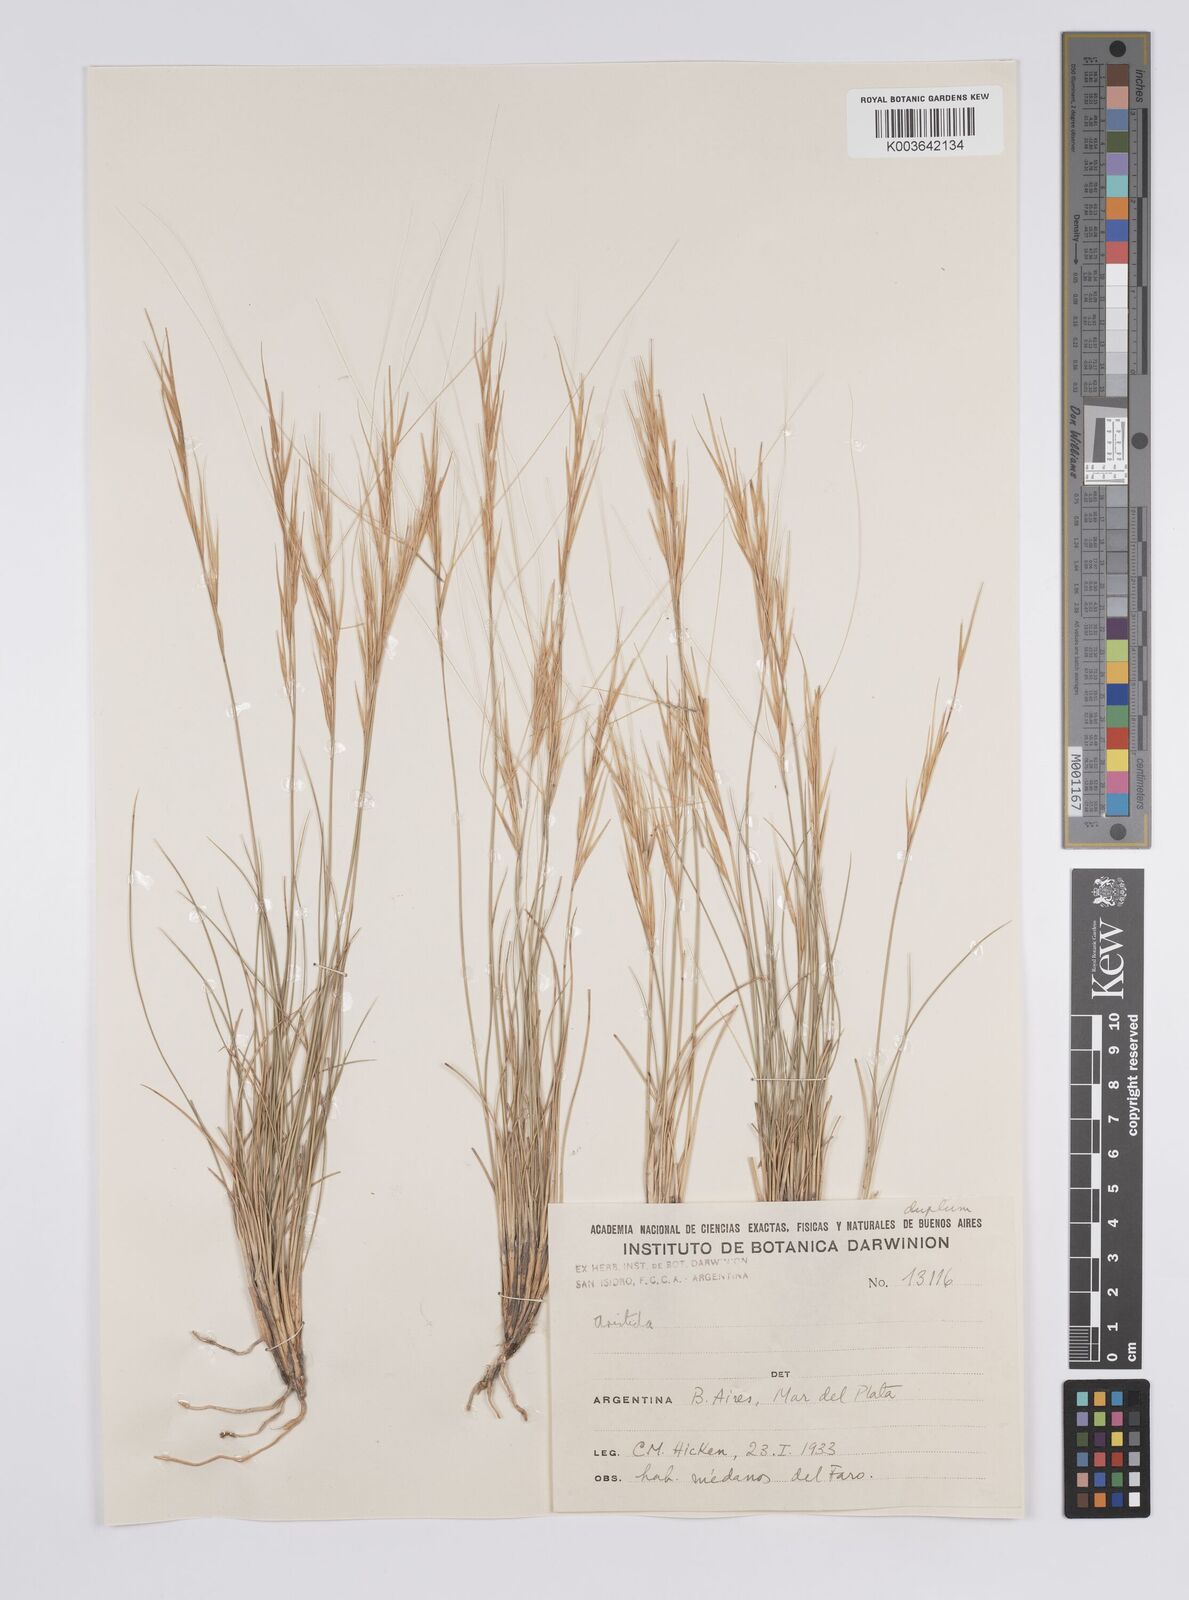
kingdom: Plantae
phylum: Tracheophyta
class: Liliopsida
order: Poales
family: Poaceae
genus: Aristida
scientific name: Aristida
